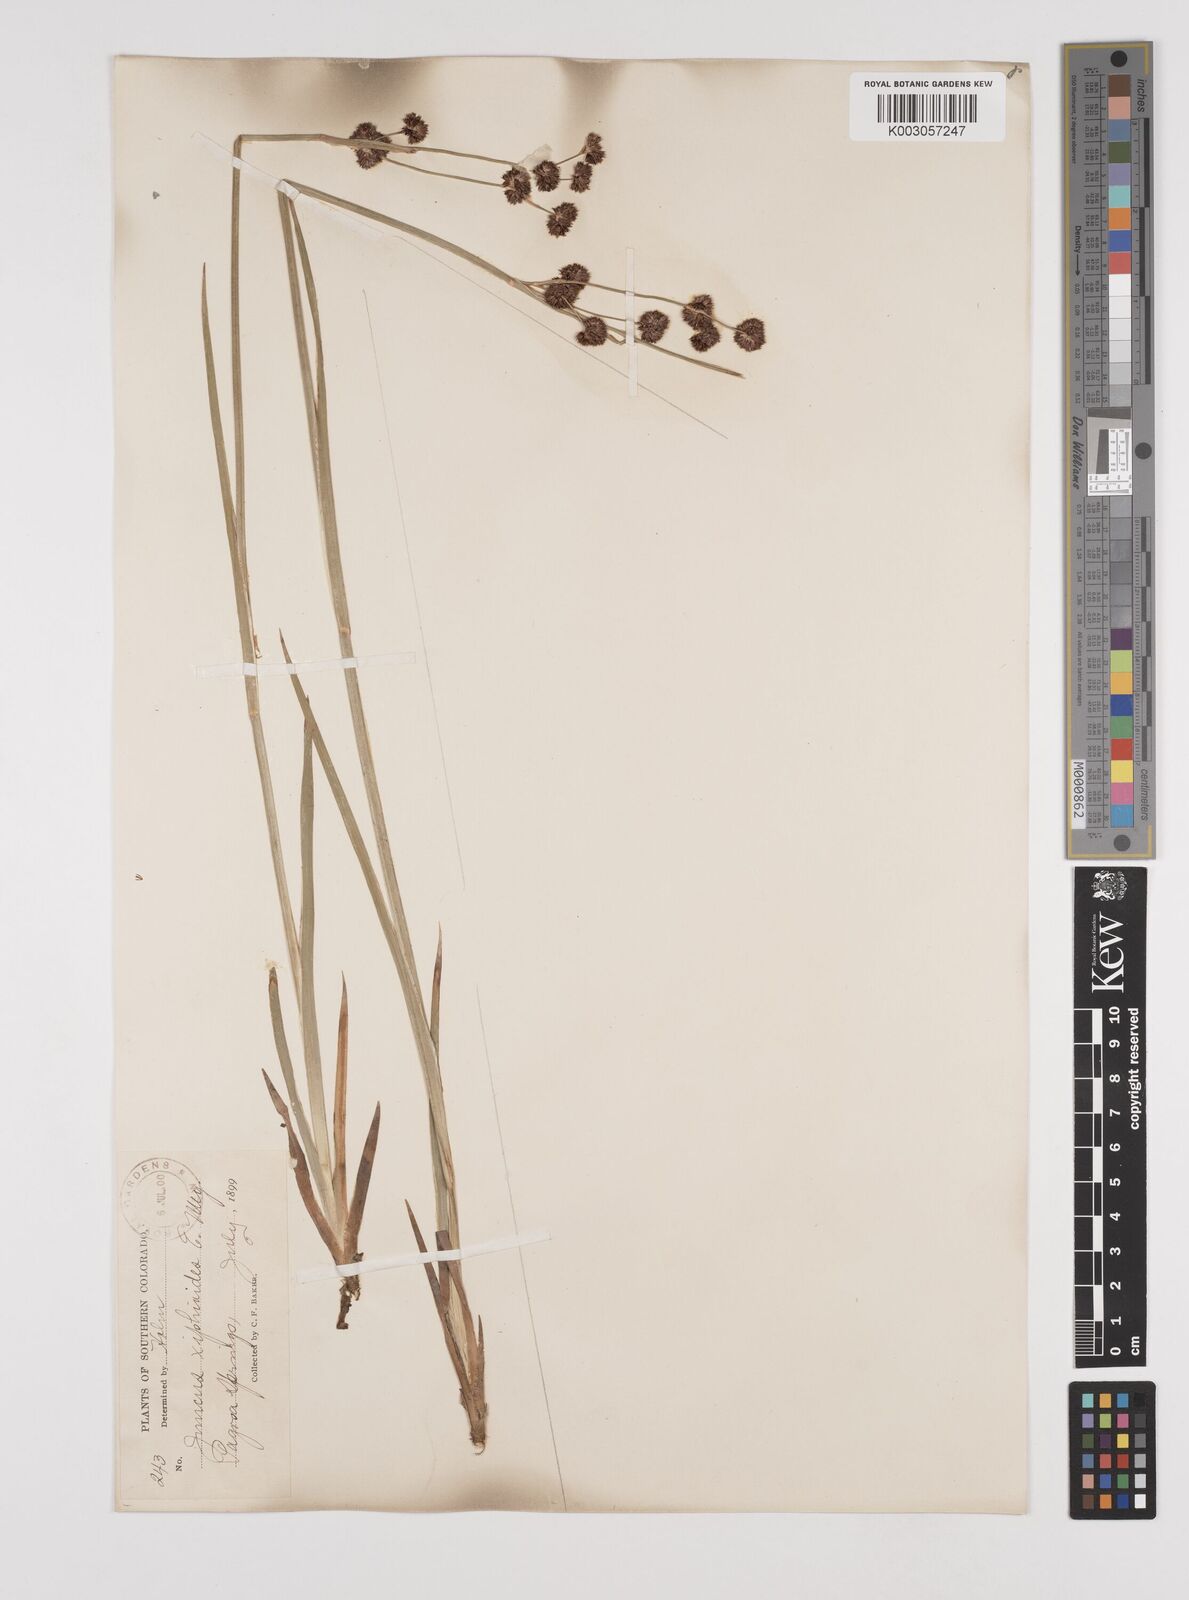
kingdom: Plantae
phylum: Tracheophyta
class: Liliopsida
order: Poales
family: Juncaceae
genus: Juncus
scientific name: Juncus xiphioides
